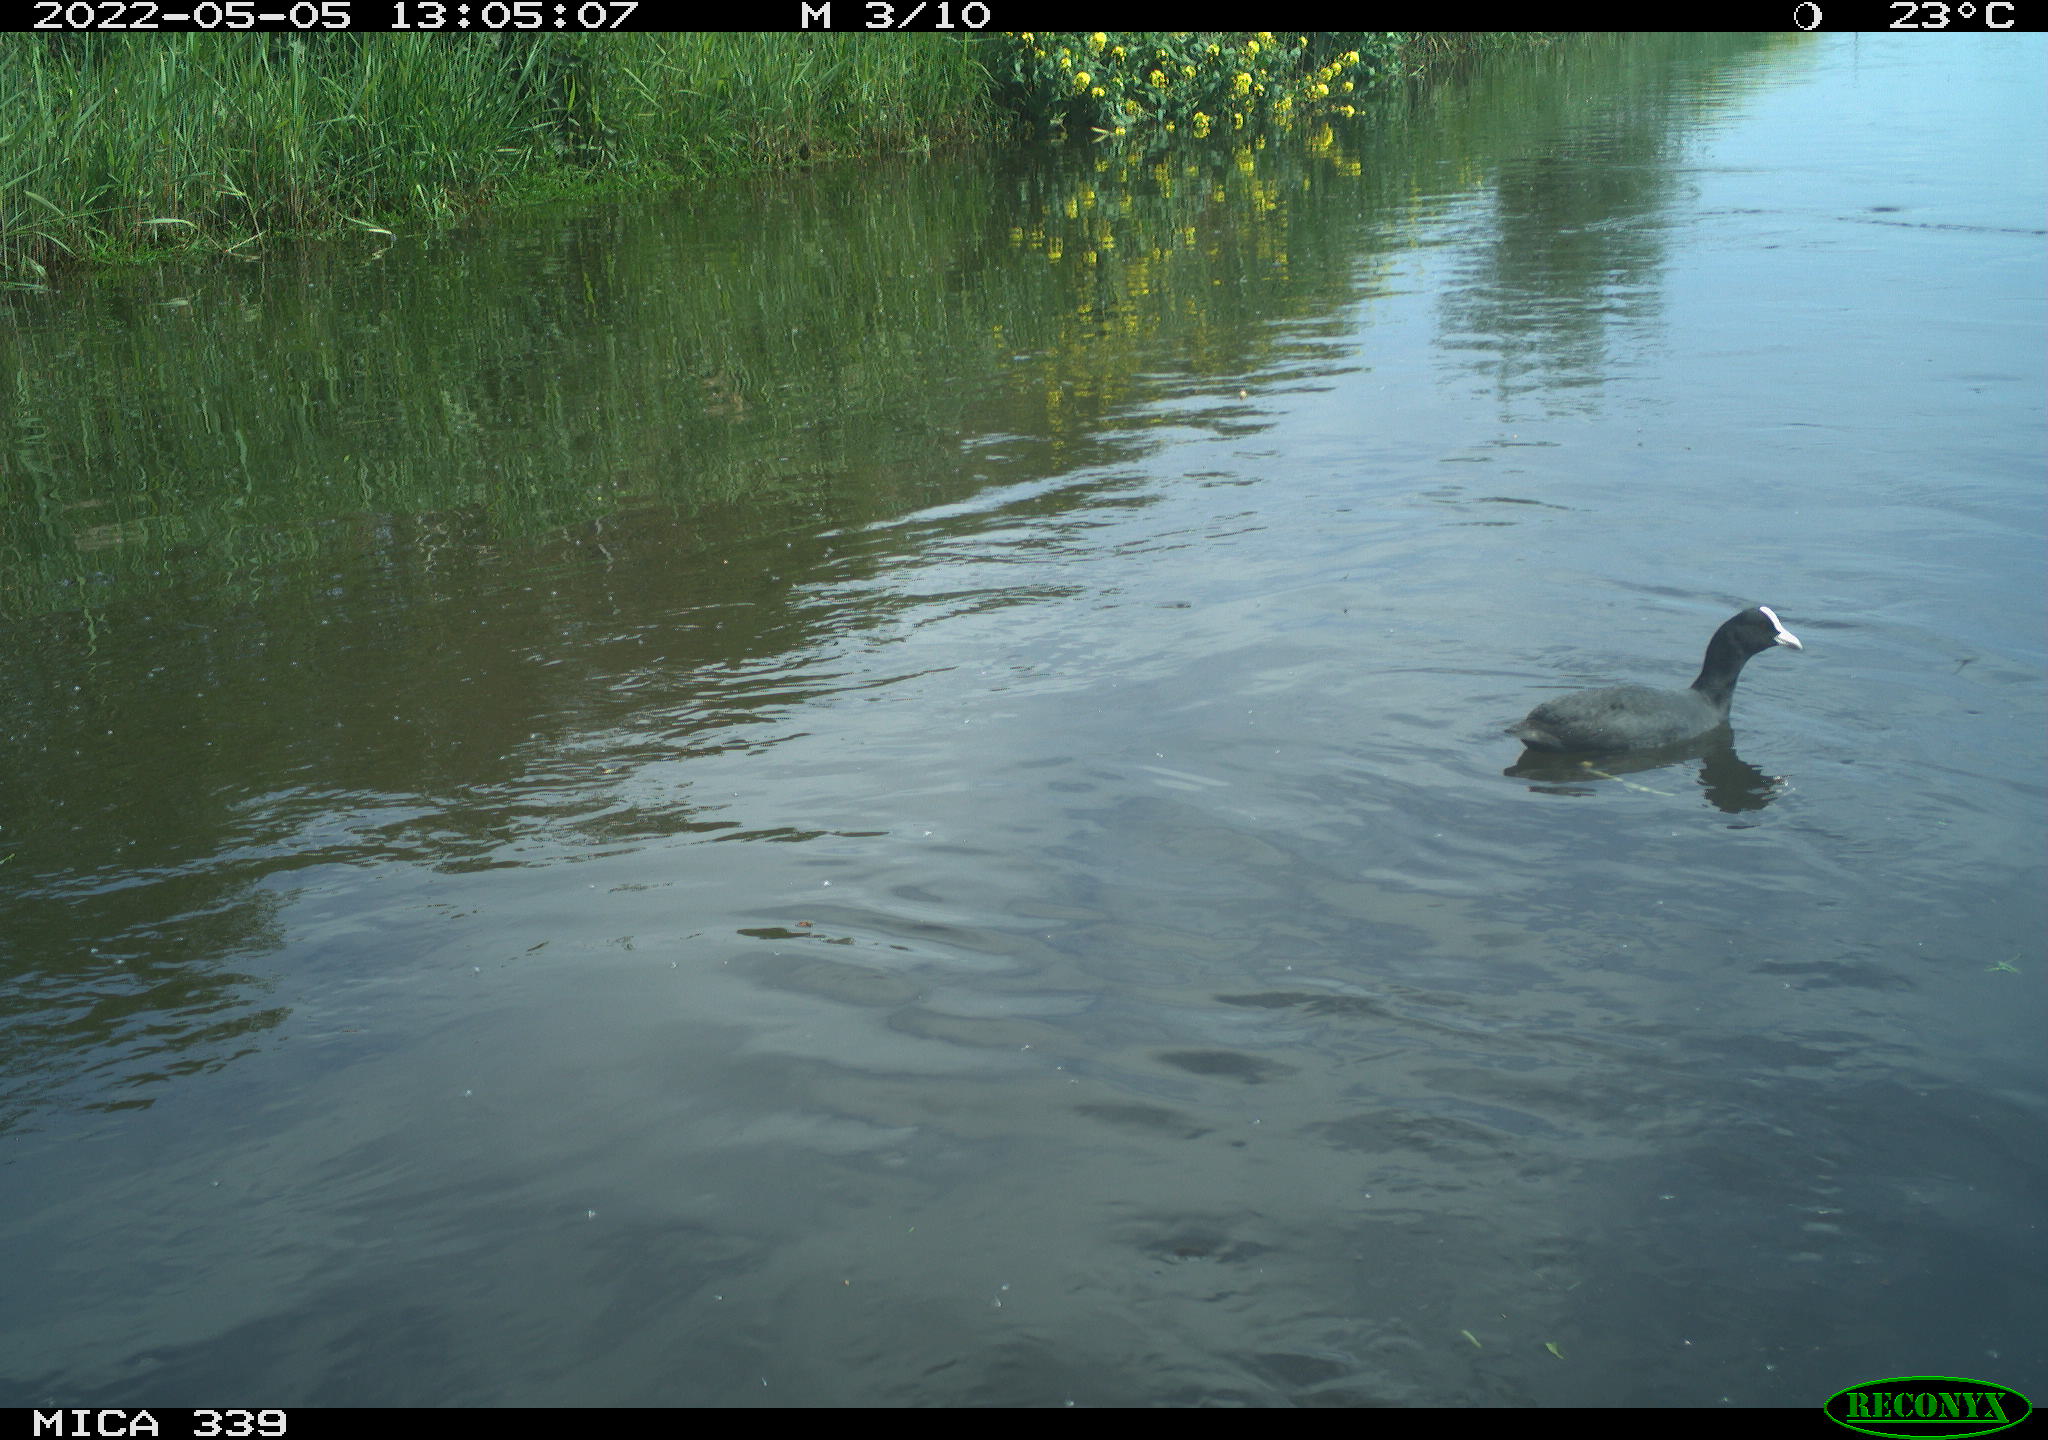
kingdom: Animalia
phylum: Chordata
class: Aves
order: Gruiformes
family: Rallidae
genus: Fulica
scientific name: Fulica atra
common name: Eurasian coot
